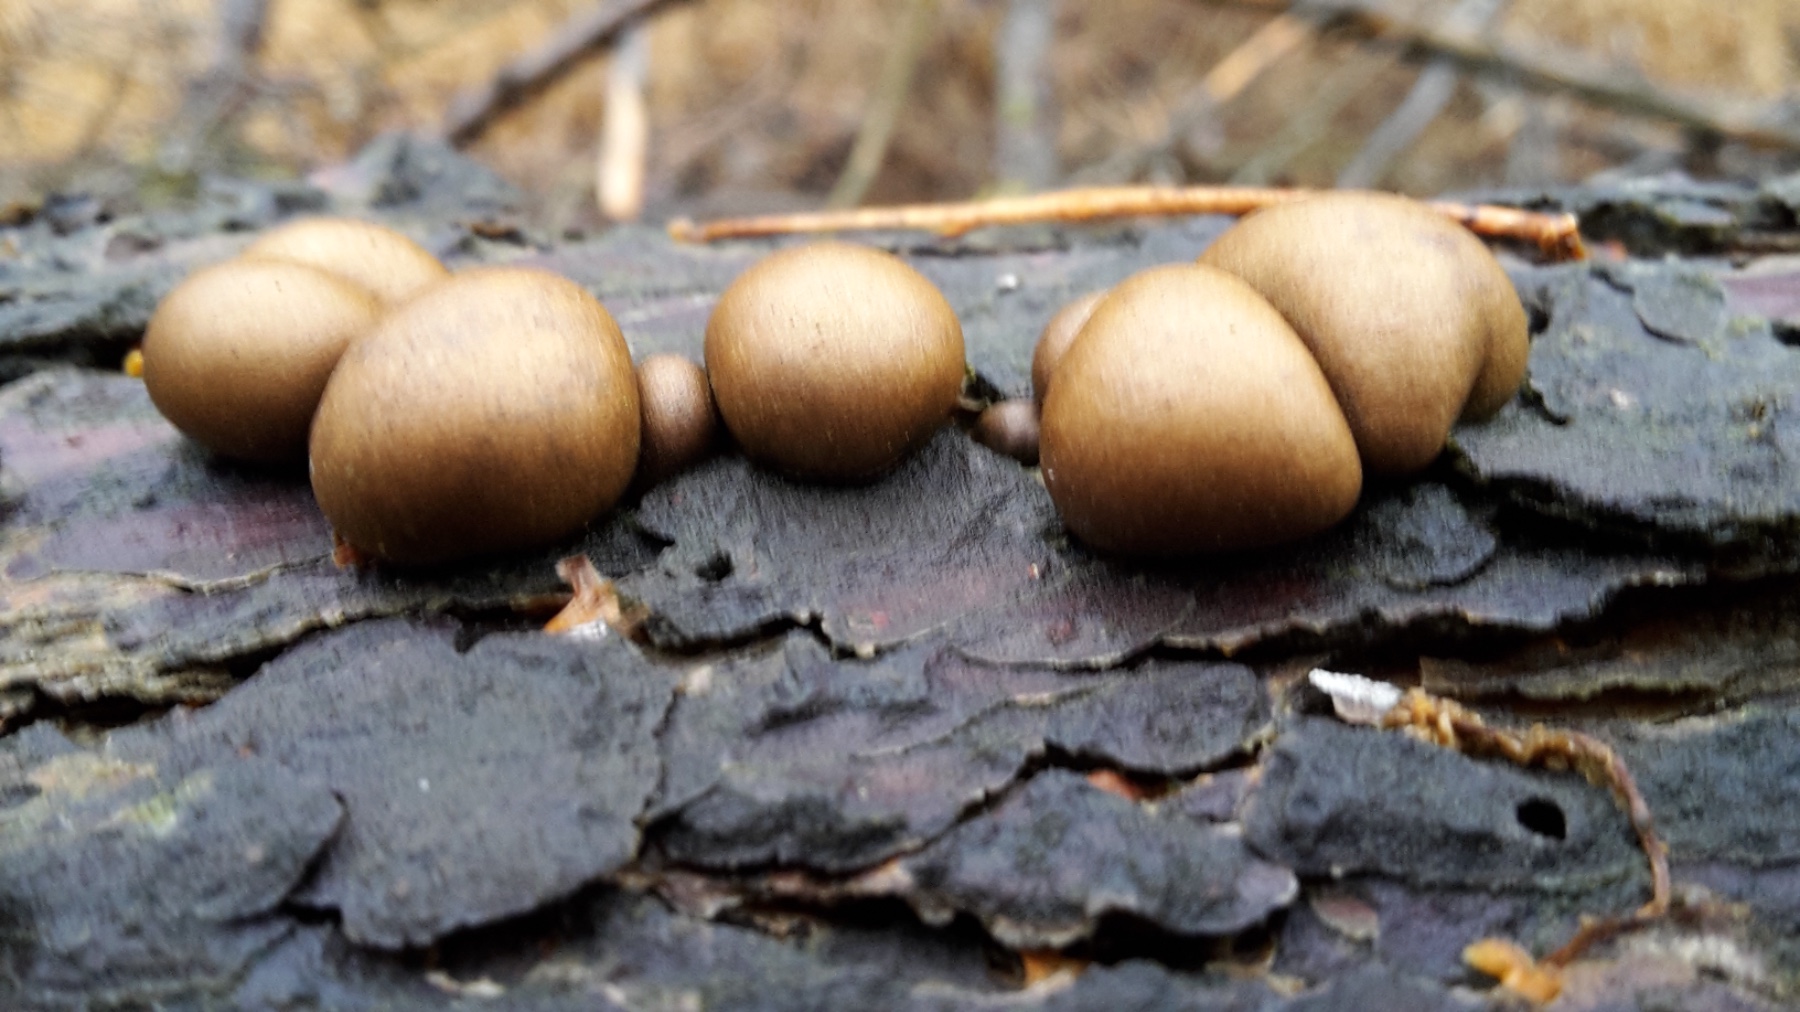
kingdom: Protozoa
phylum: Mycetozoa
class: Myxomycetes
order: Cribrariales
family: Tubiferaceae
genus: Lycogala
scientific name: Lycogala epidendrum
